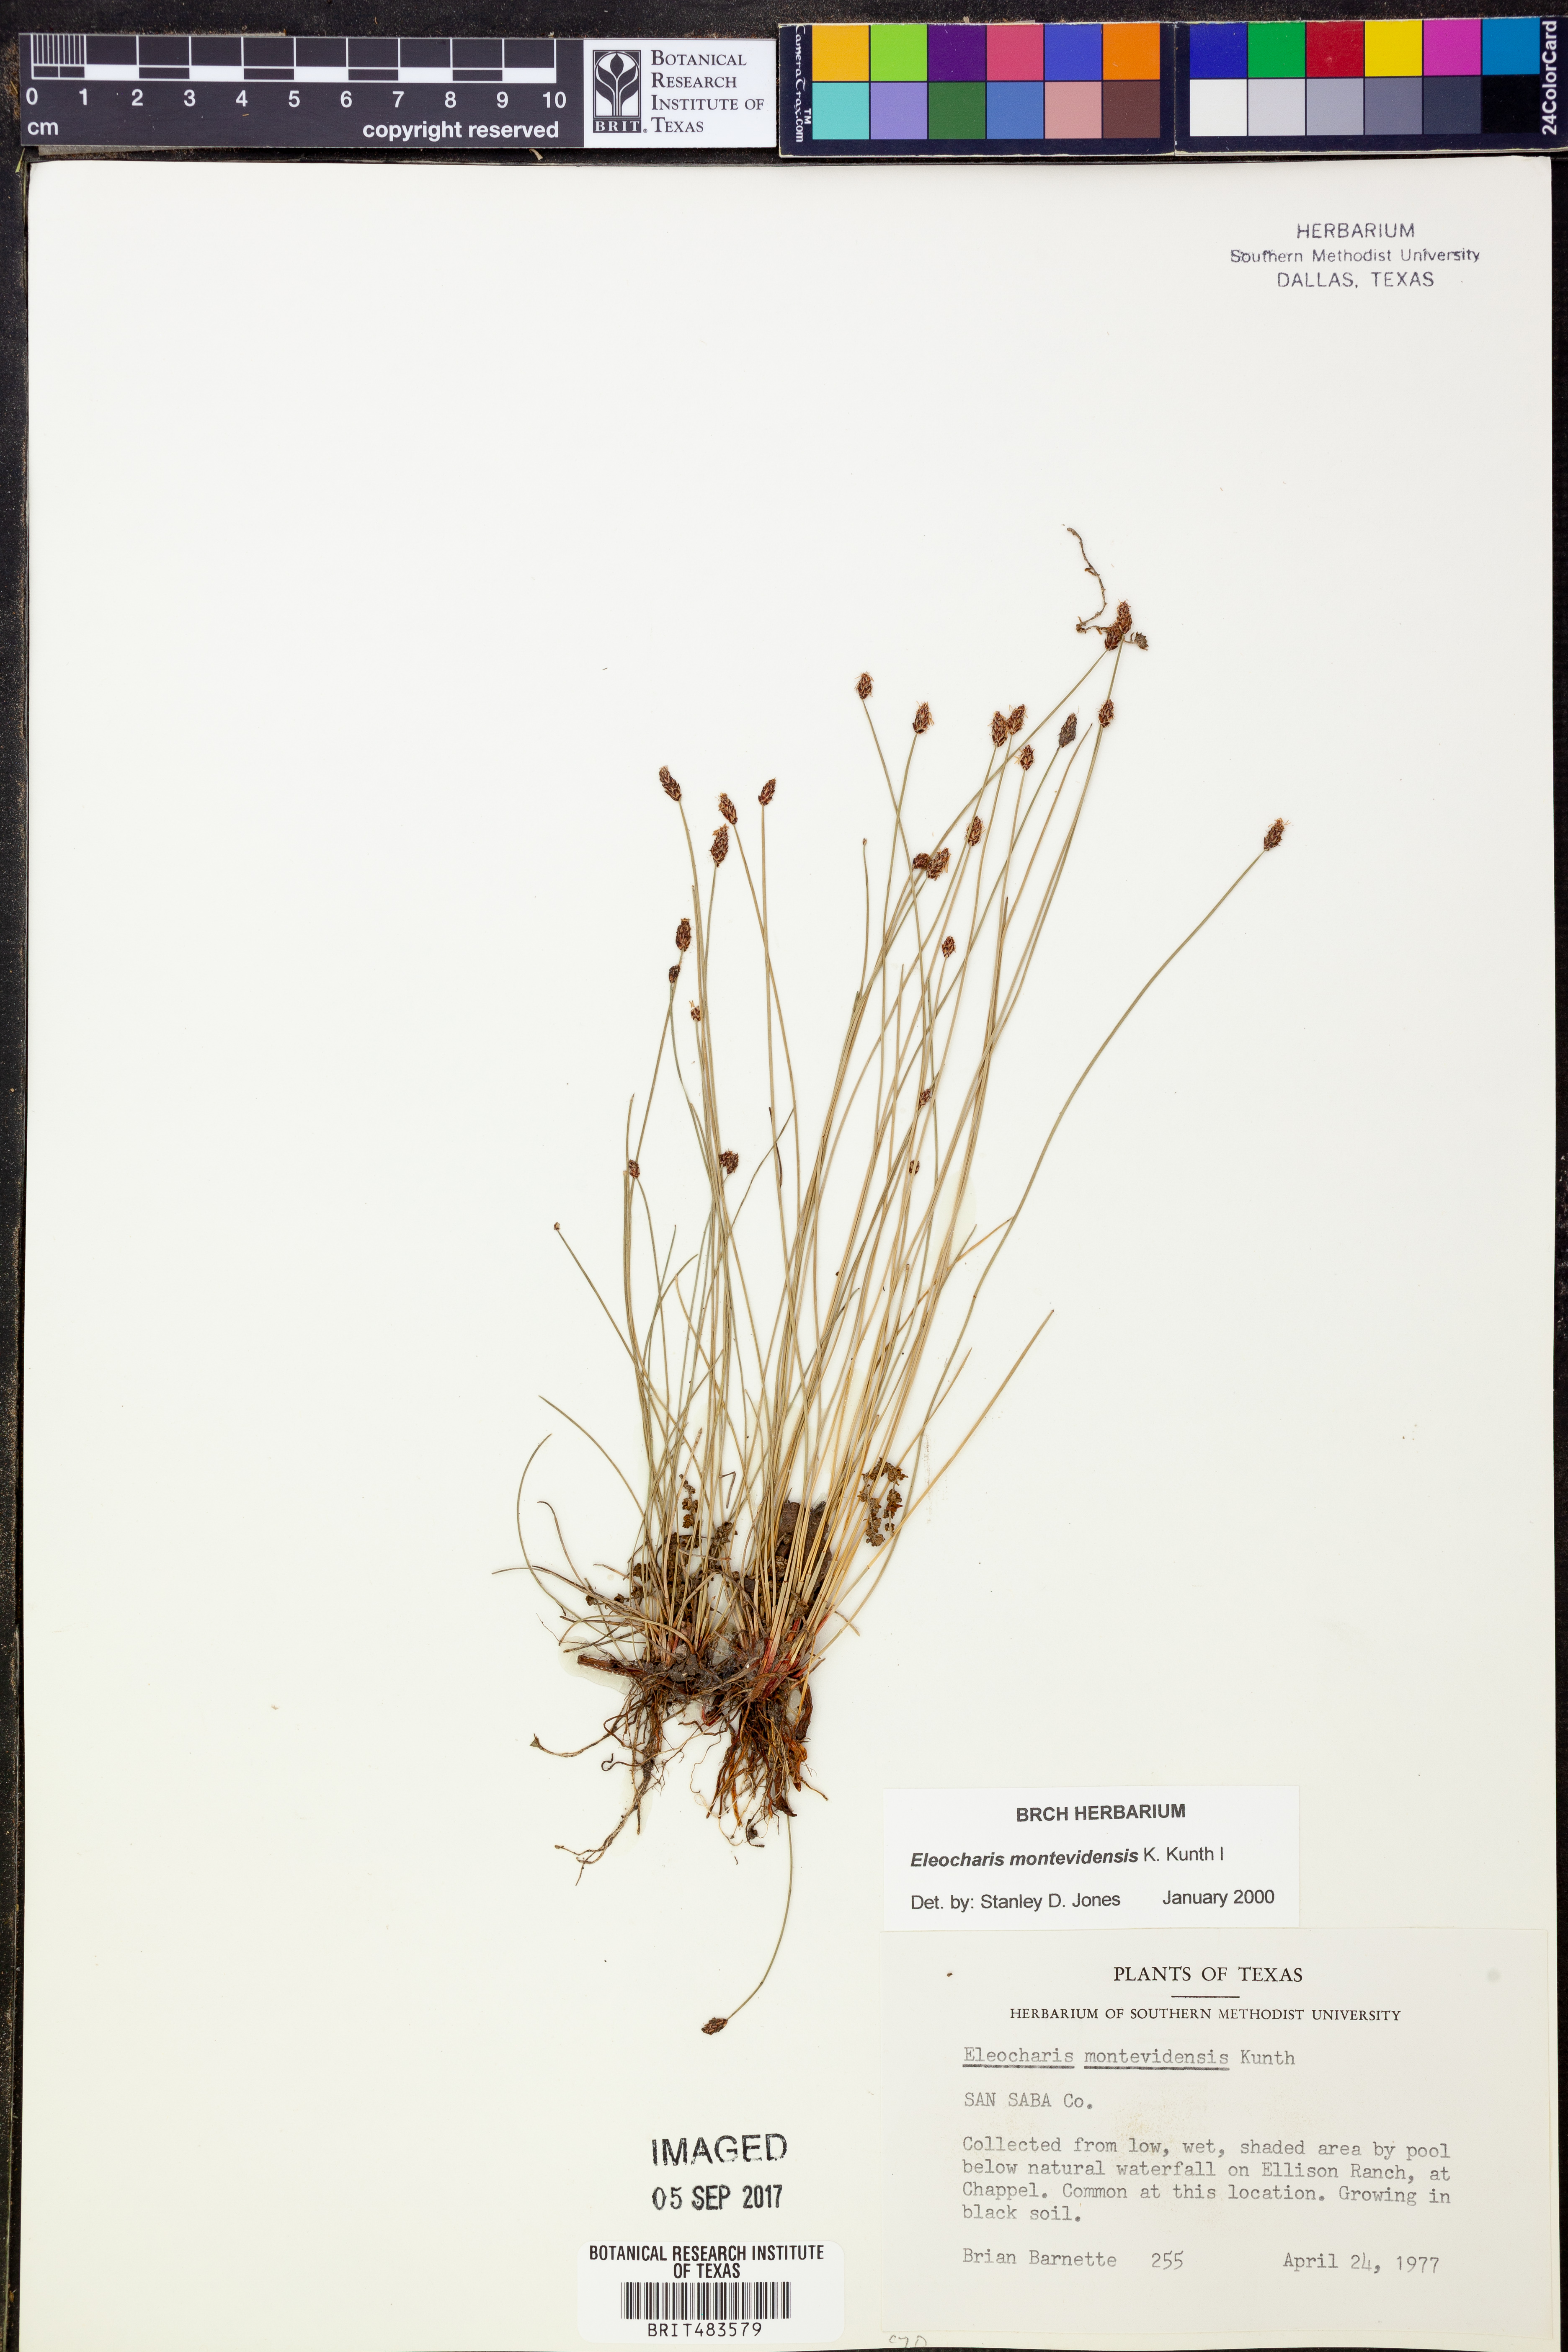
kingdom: Plantae
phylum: Tracheophyta
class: Liliopsida
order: Poales
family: Cyperaceae
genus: Eleocharis
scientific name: Eleocharis montevidensis
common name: Sand spike-rush
